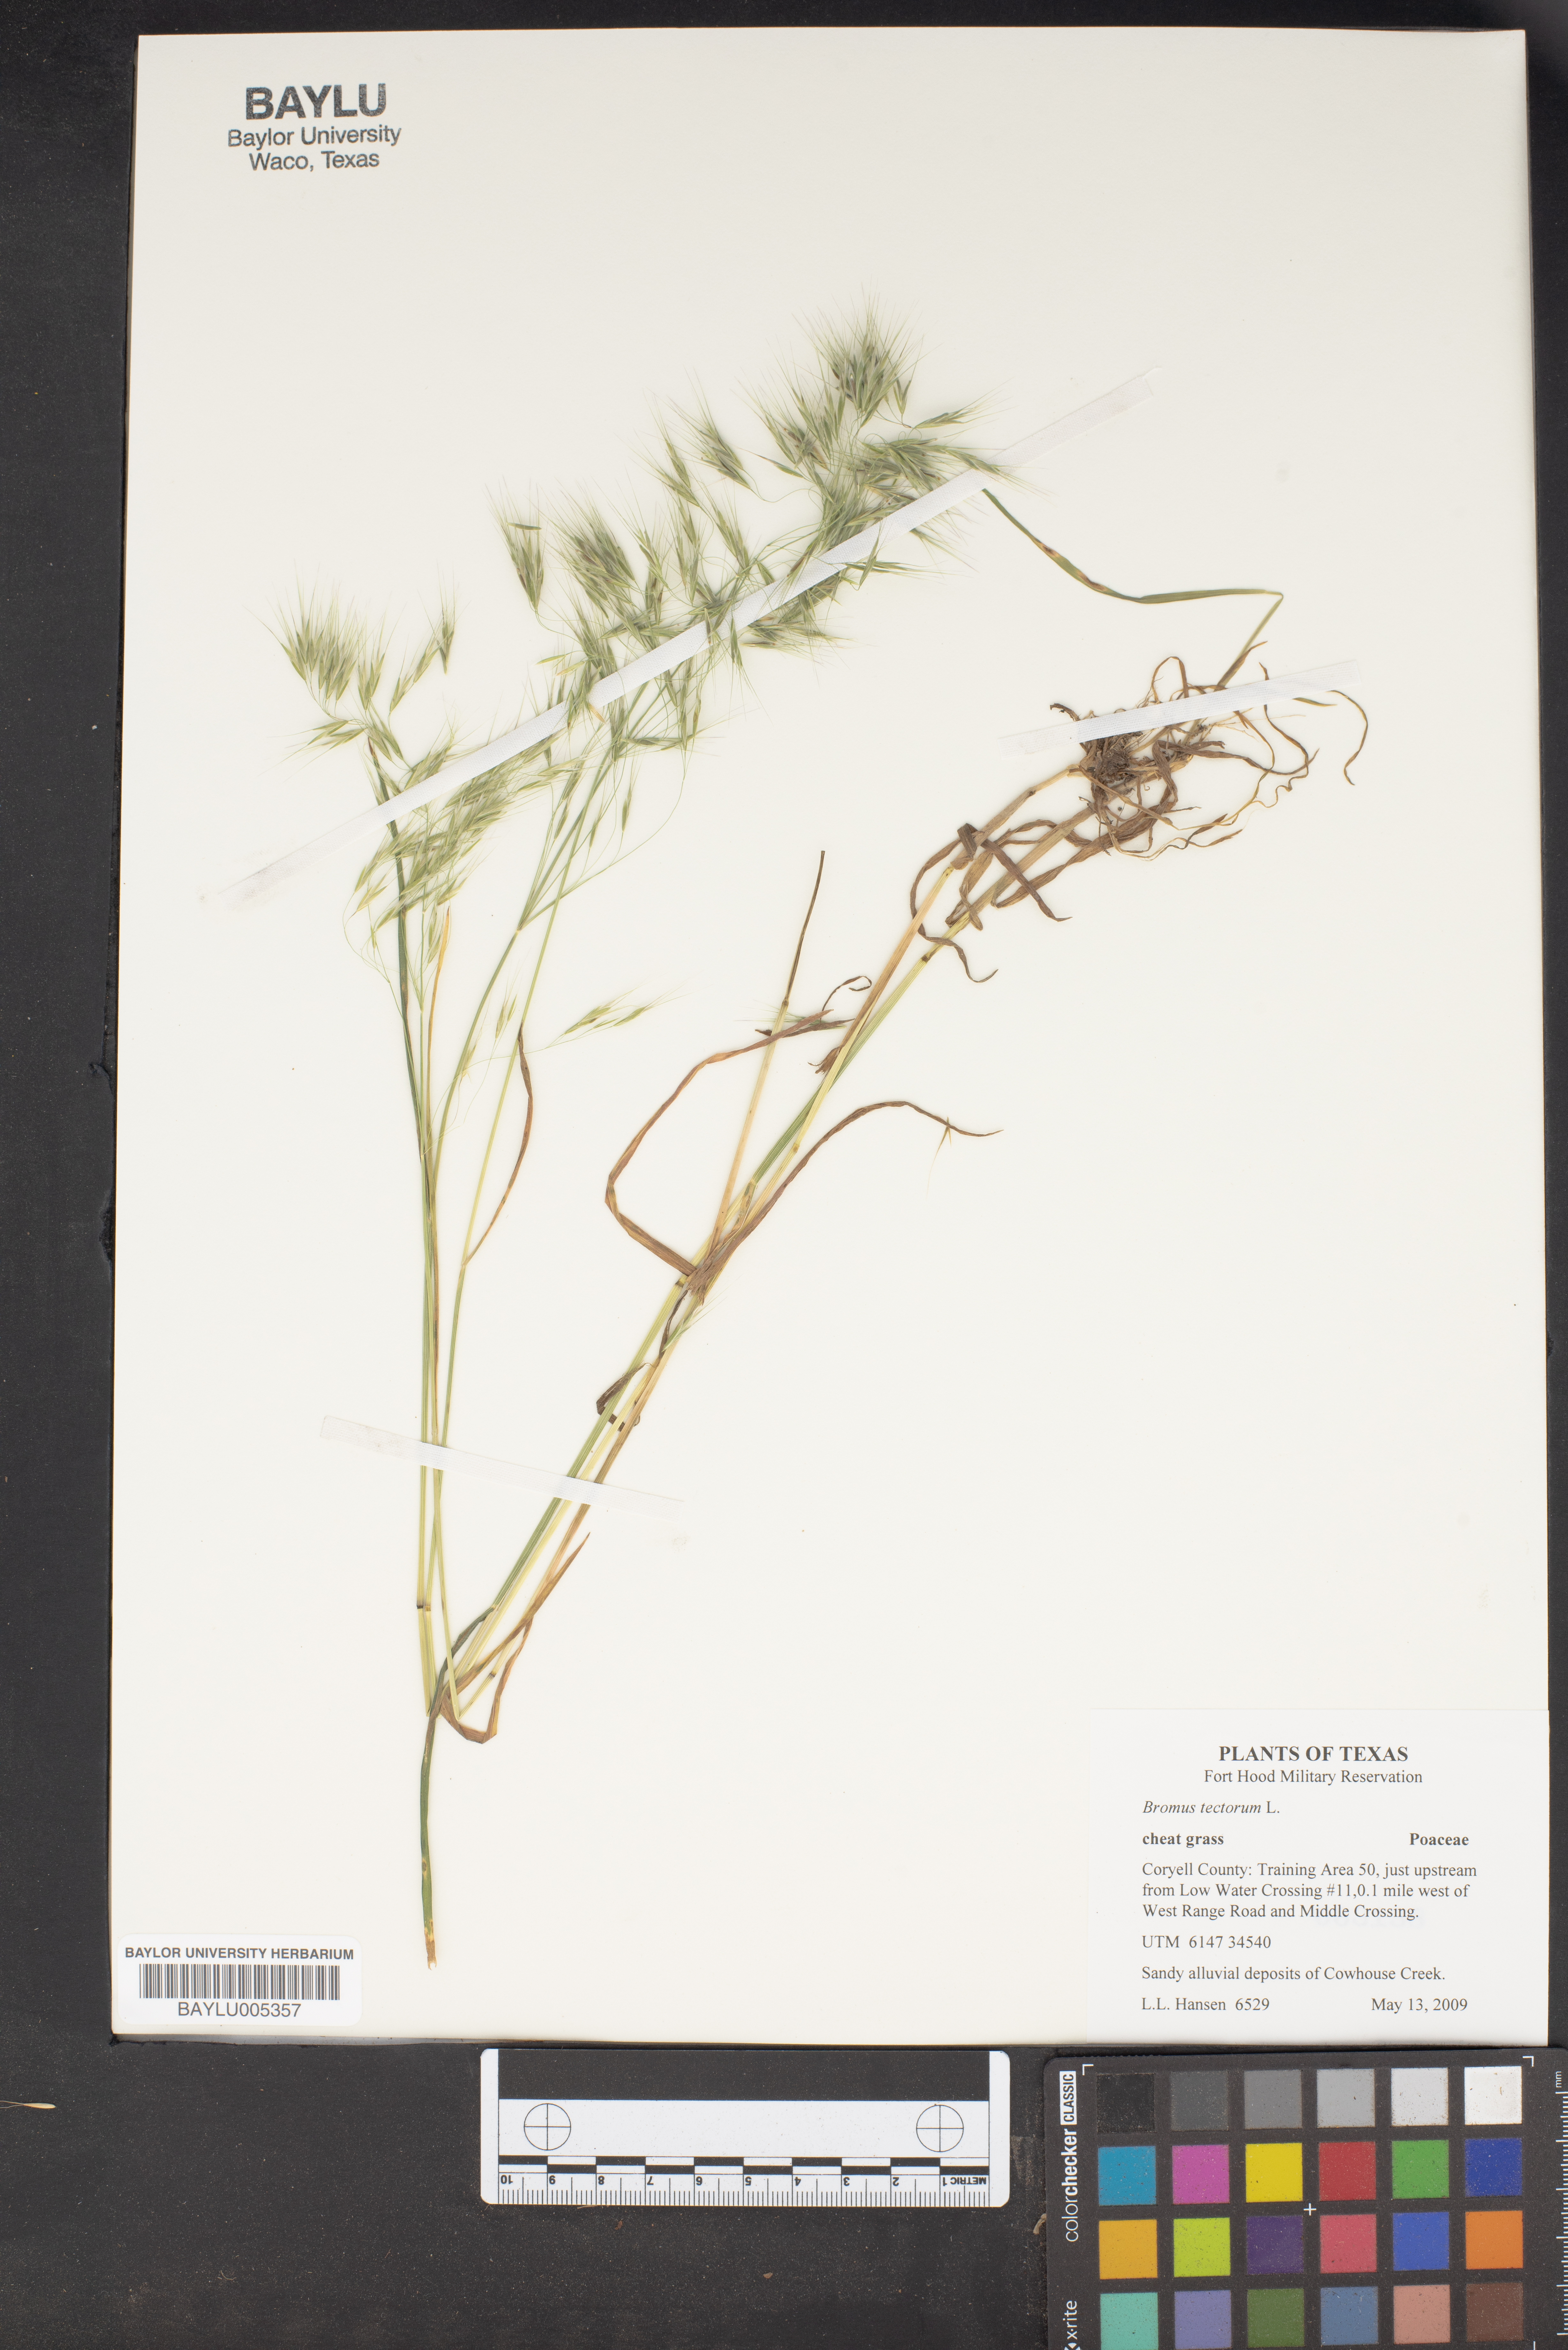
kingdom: Plantae
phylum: Tracheophyta
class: Liliopsida
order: Poales
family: Poaceae
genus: Bromus
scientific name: Bromus tectorum
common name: Cheatgrass
